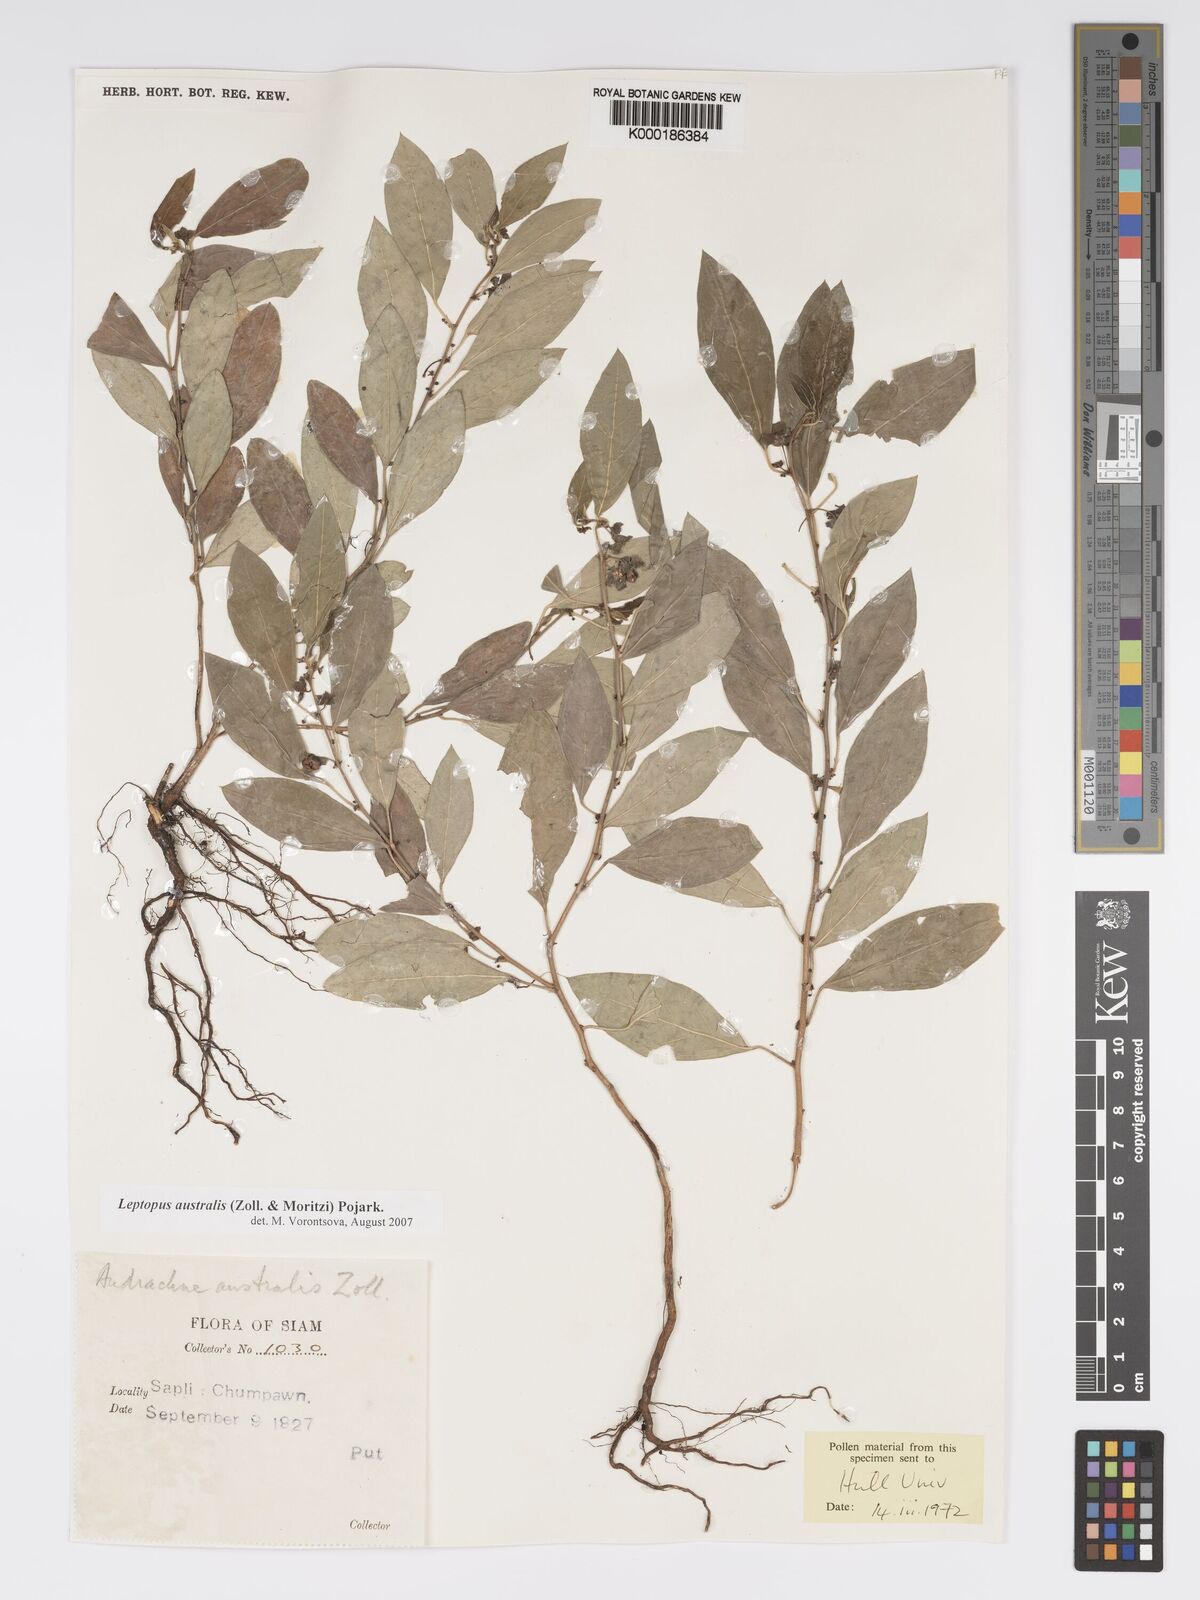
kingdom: Plantae
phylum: Tracheophyta
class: Magnoliopsida
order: Malpighiales
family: Phyllanthaceae
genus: Andrachne
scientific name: Andrachne
